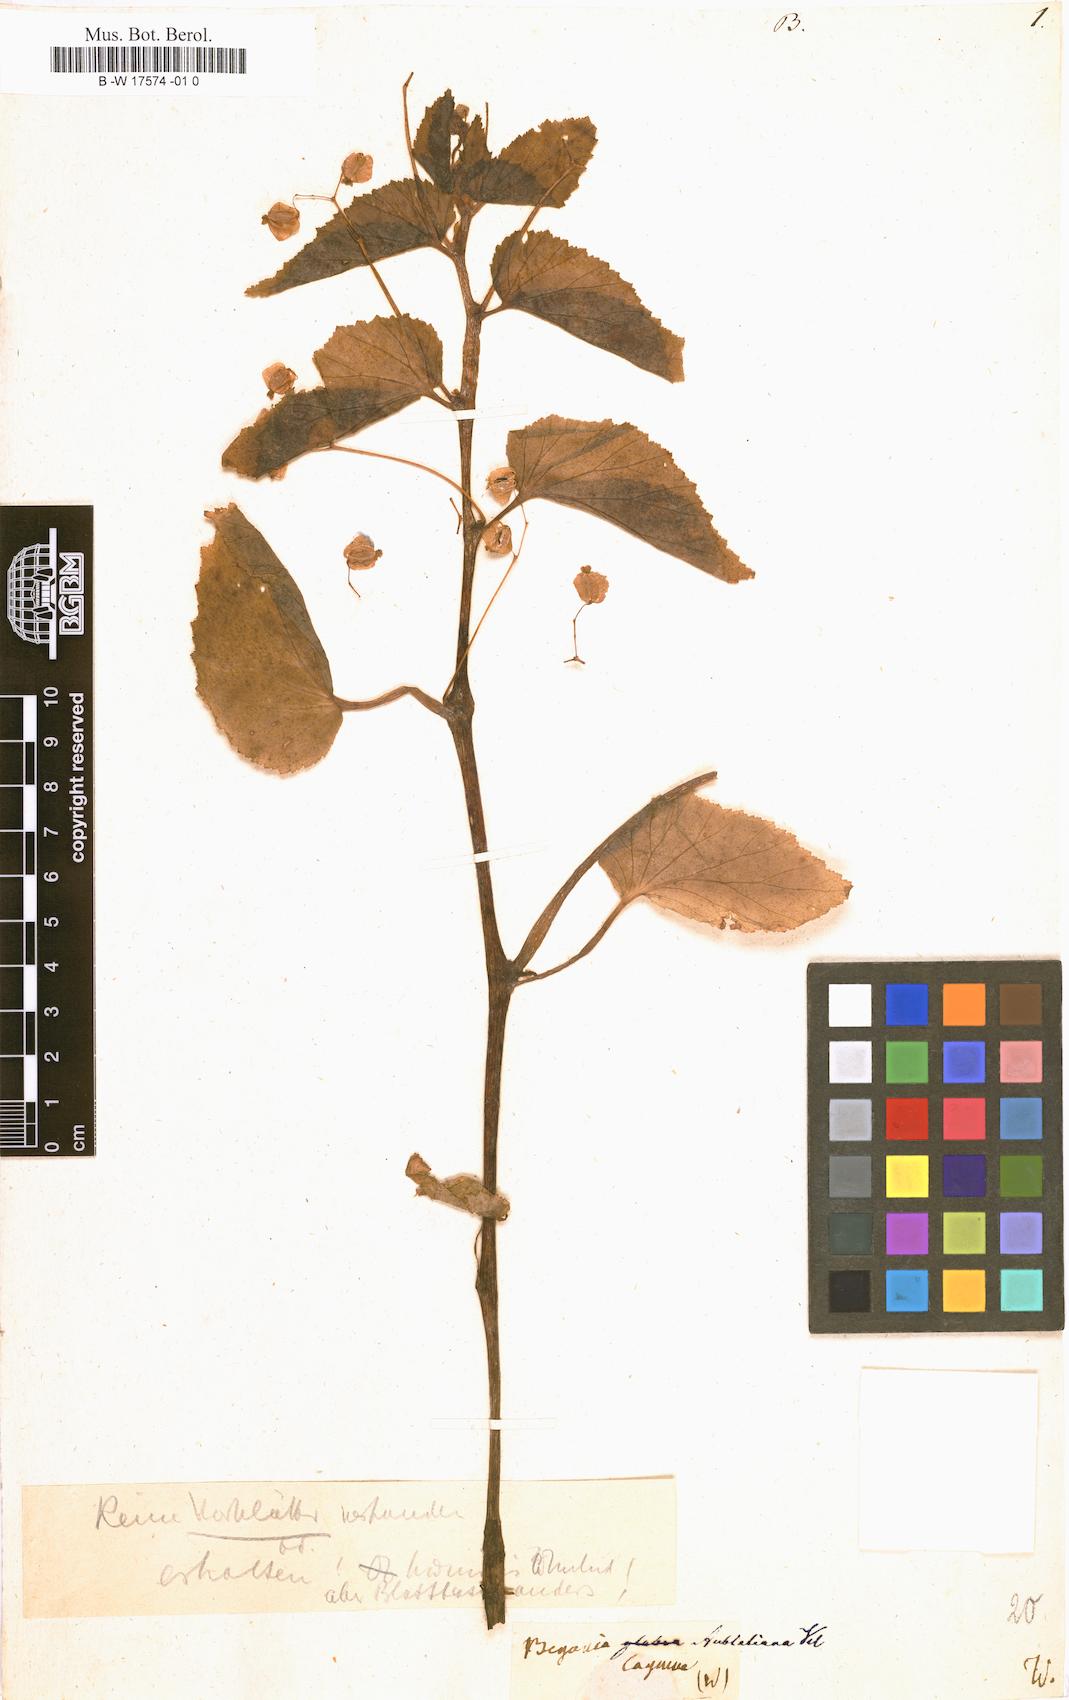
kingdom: Plantae
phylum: Tracheophyta
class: Magnoliopsida
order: Cucurbitales
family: Begoniaceae
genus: Begonia
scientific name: Begonia
